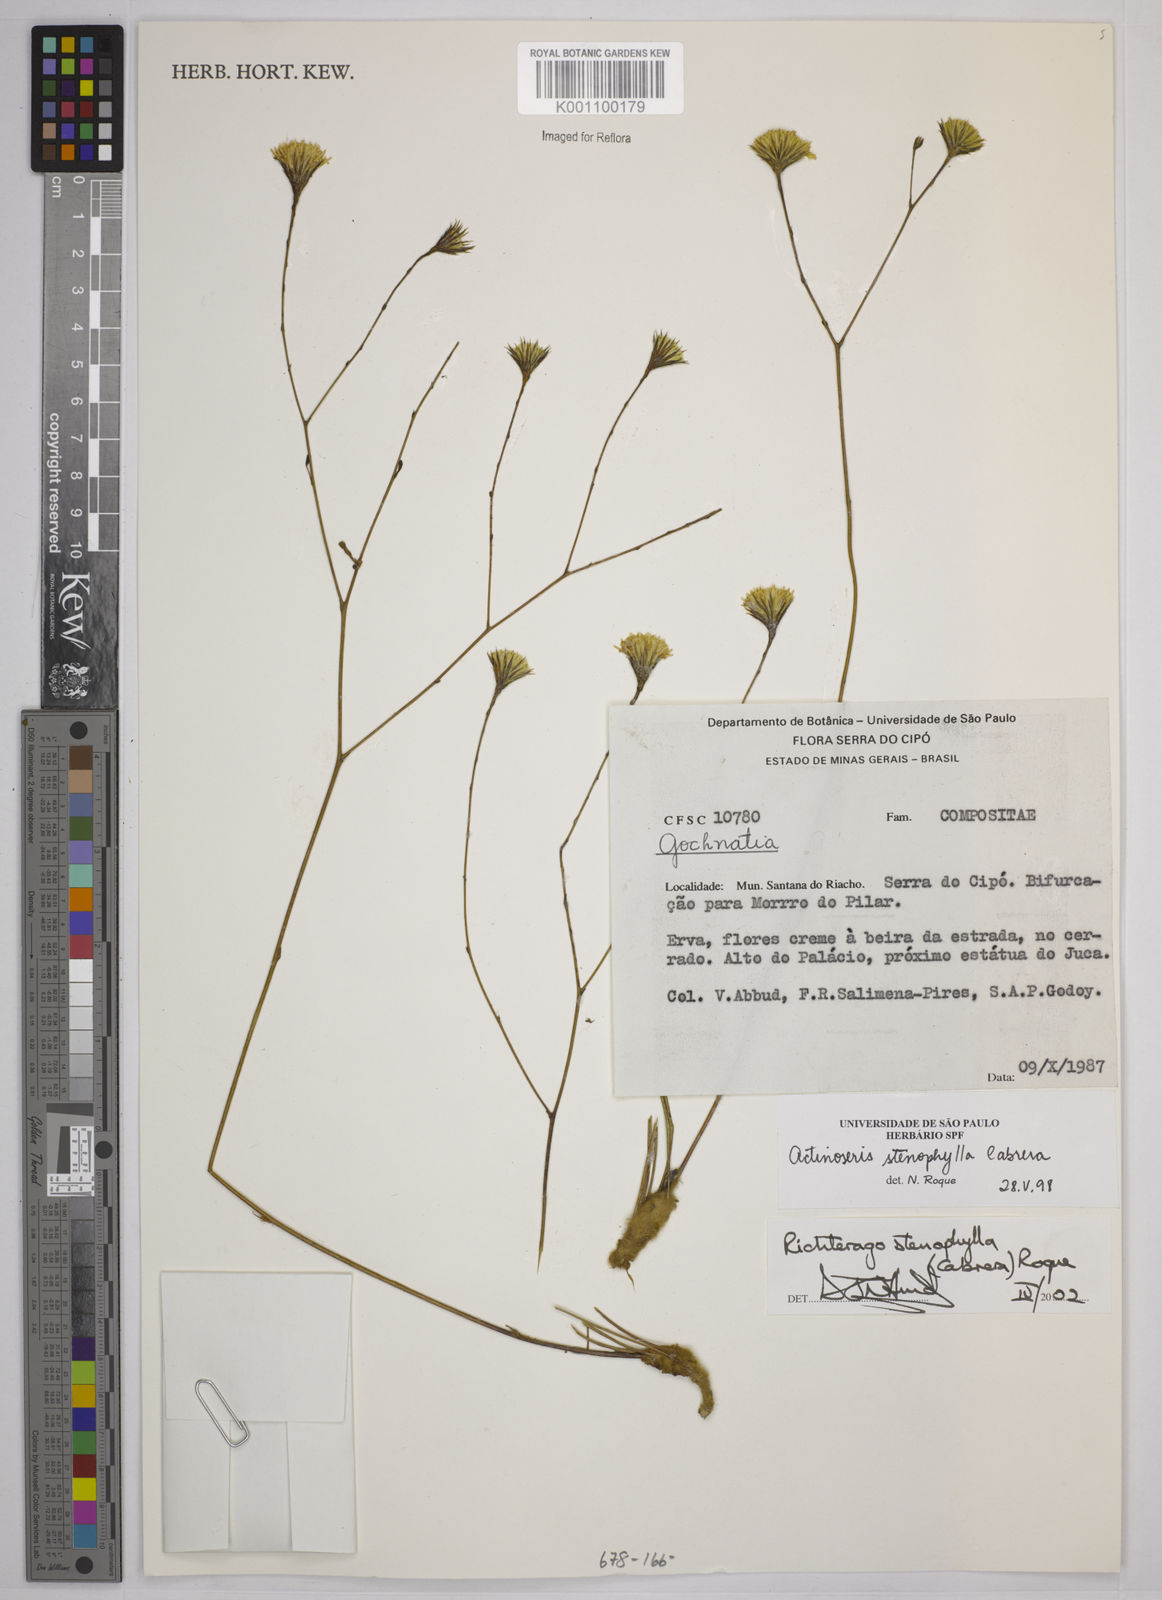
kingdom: Plantae
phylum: Tracheophyta
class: Magnoliopsida
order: Asterales
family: Asteraceae
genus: Richterago
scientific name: Richterago stenophylla
